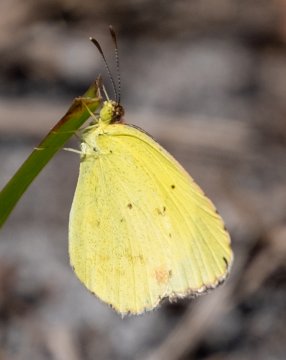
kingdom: Animalia
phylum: Arthropoda
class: Insecta
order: Lepidoptera
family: Pieridae
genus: Pyrisitia
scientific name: Pyrisitia lisa
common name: Little Yellow
